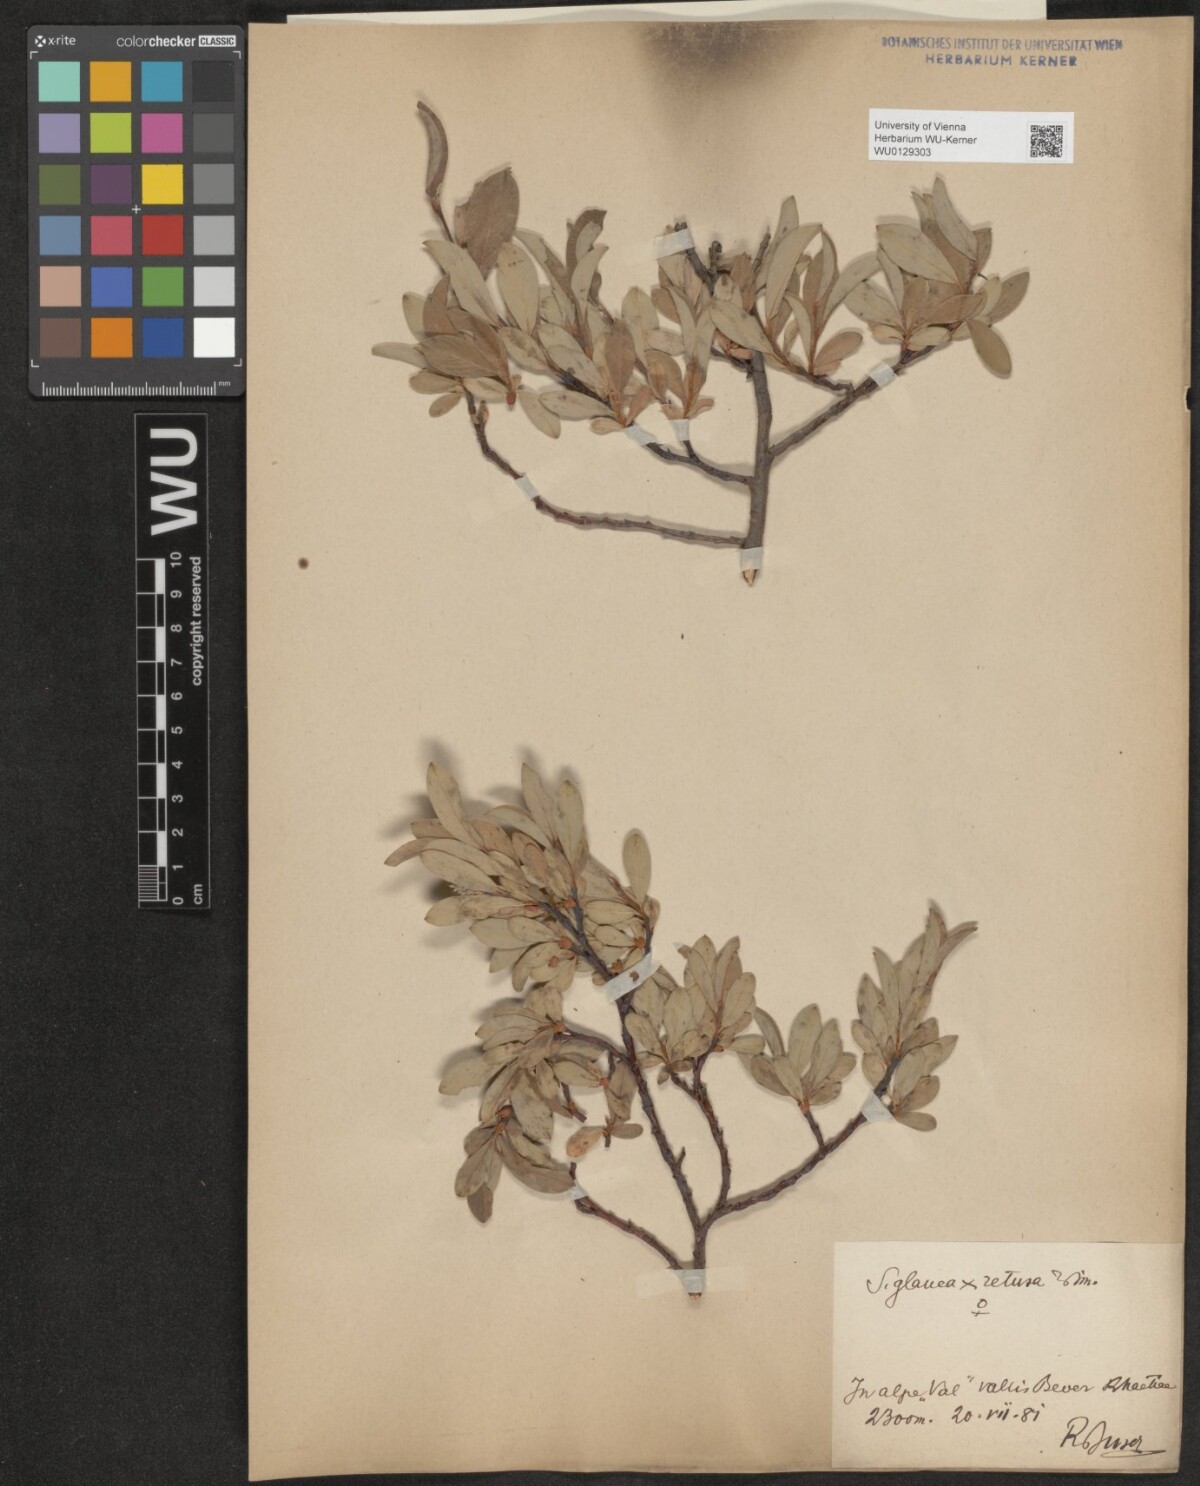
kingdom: Plantae
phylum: Tracheophyta
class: Magnoliopsida
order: Malpighiales
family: Salicaceae
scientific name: Salicaceae
